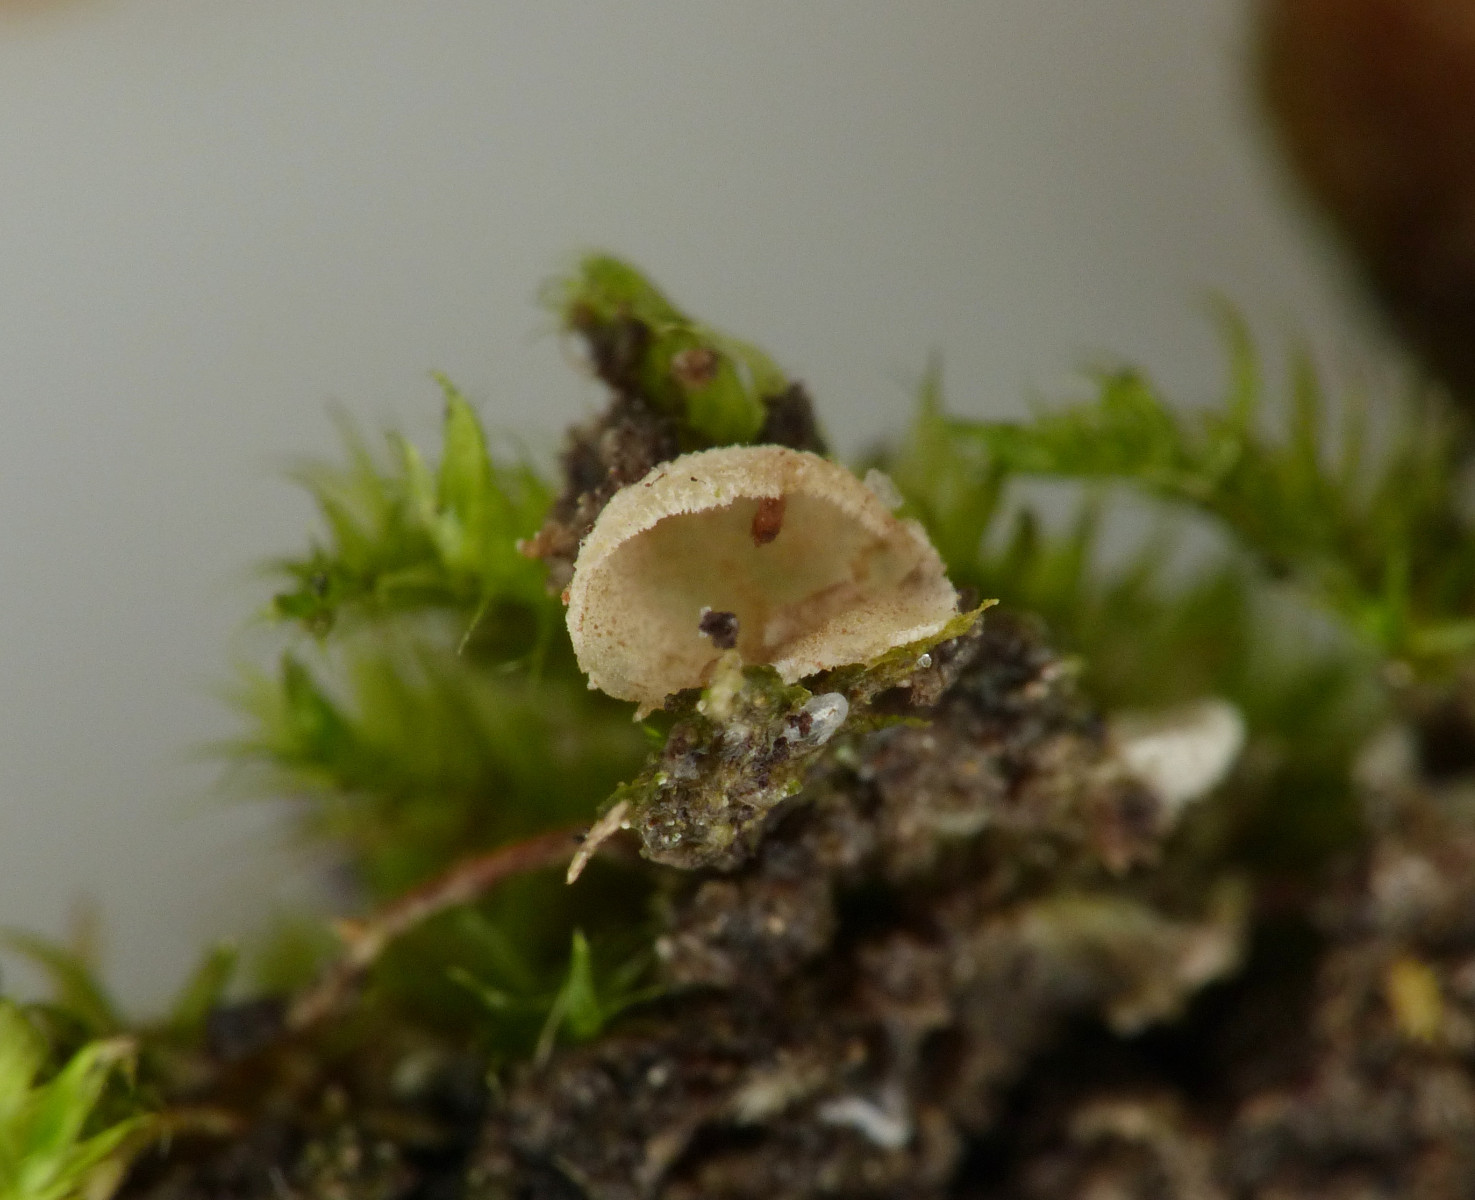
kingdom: Fungi
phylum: Basidiomycota
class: Agaricomycetes
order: Agaricales
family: Chromocyphellaceae
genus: Chromocyphella
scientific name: Chromocyphella muscicola
